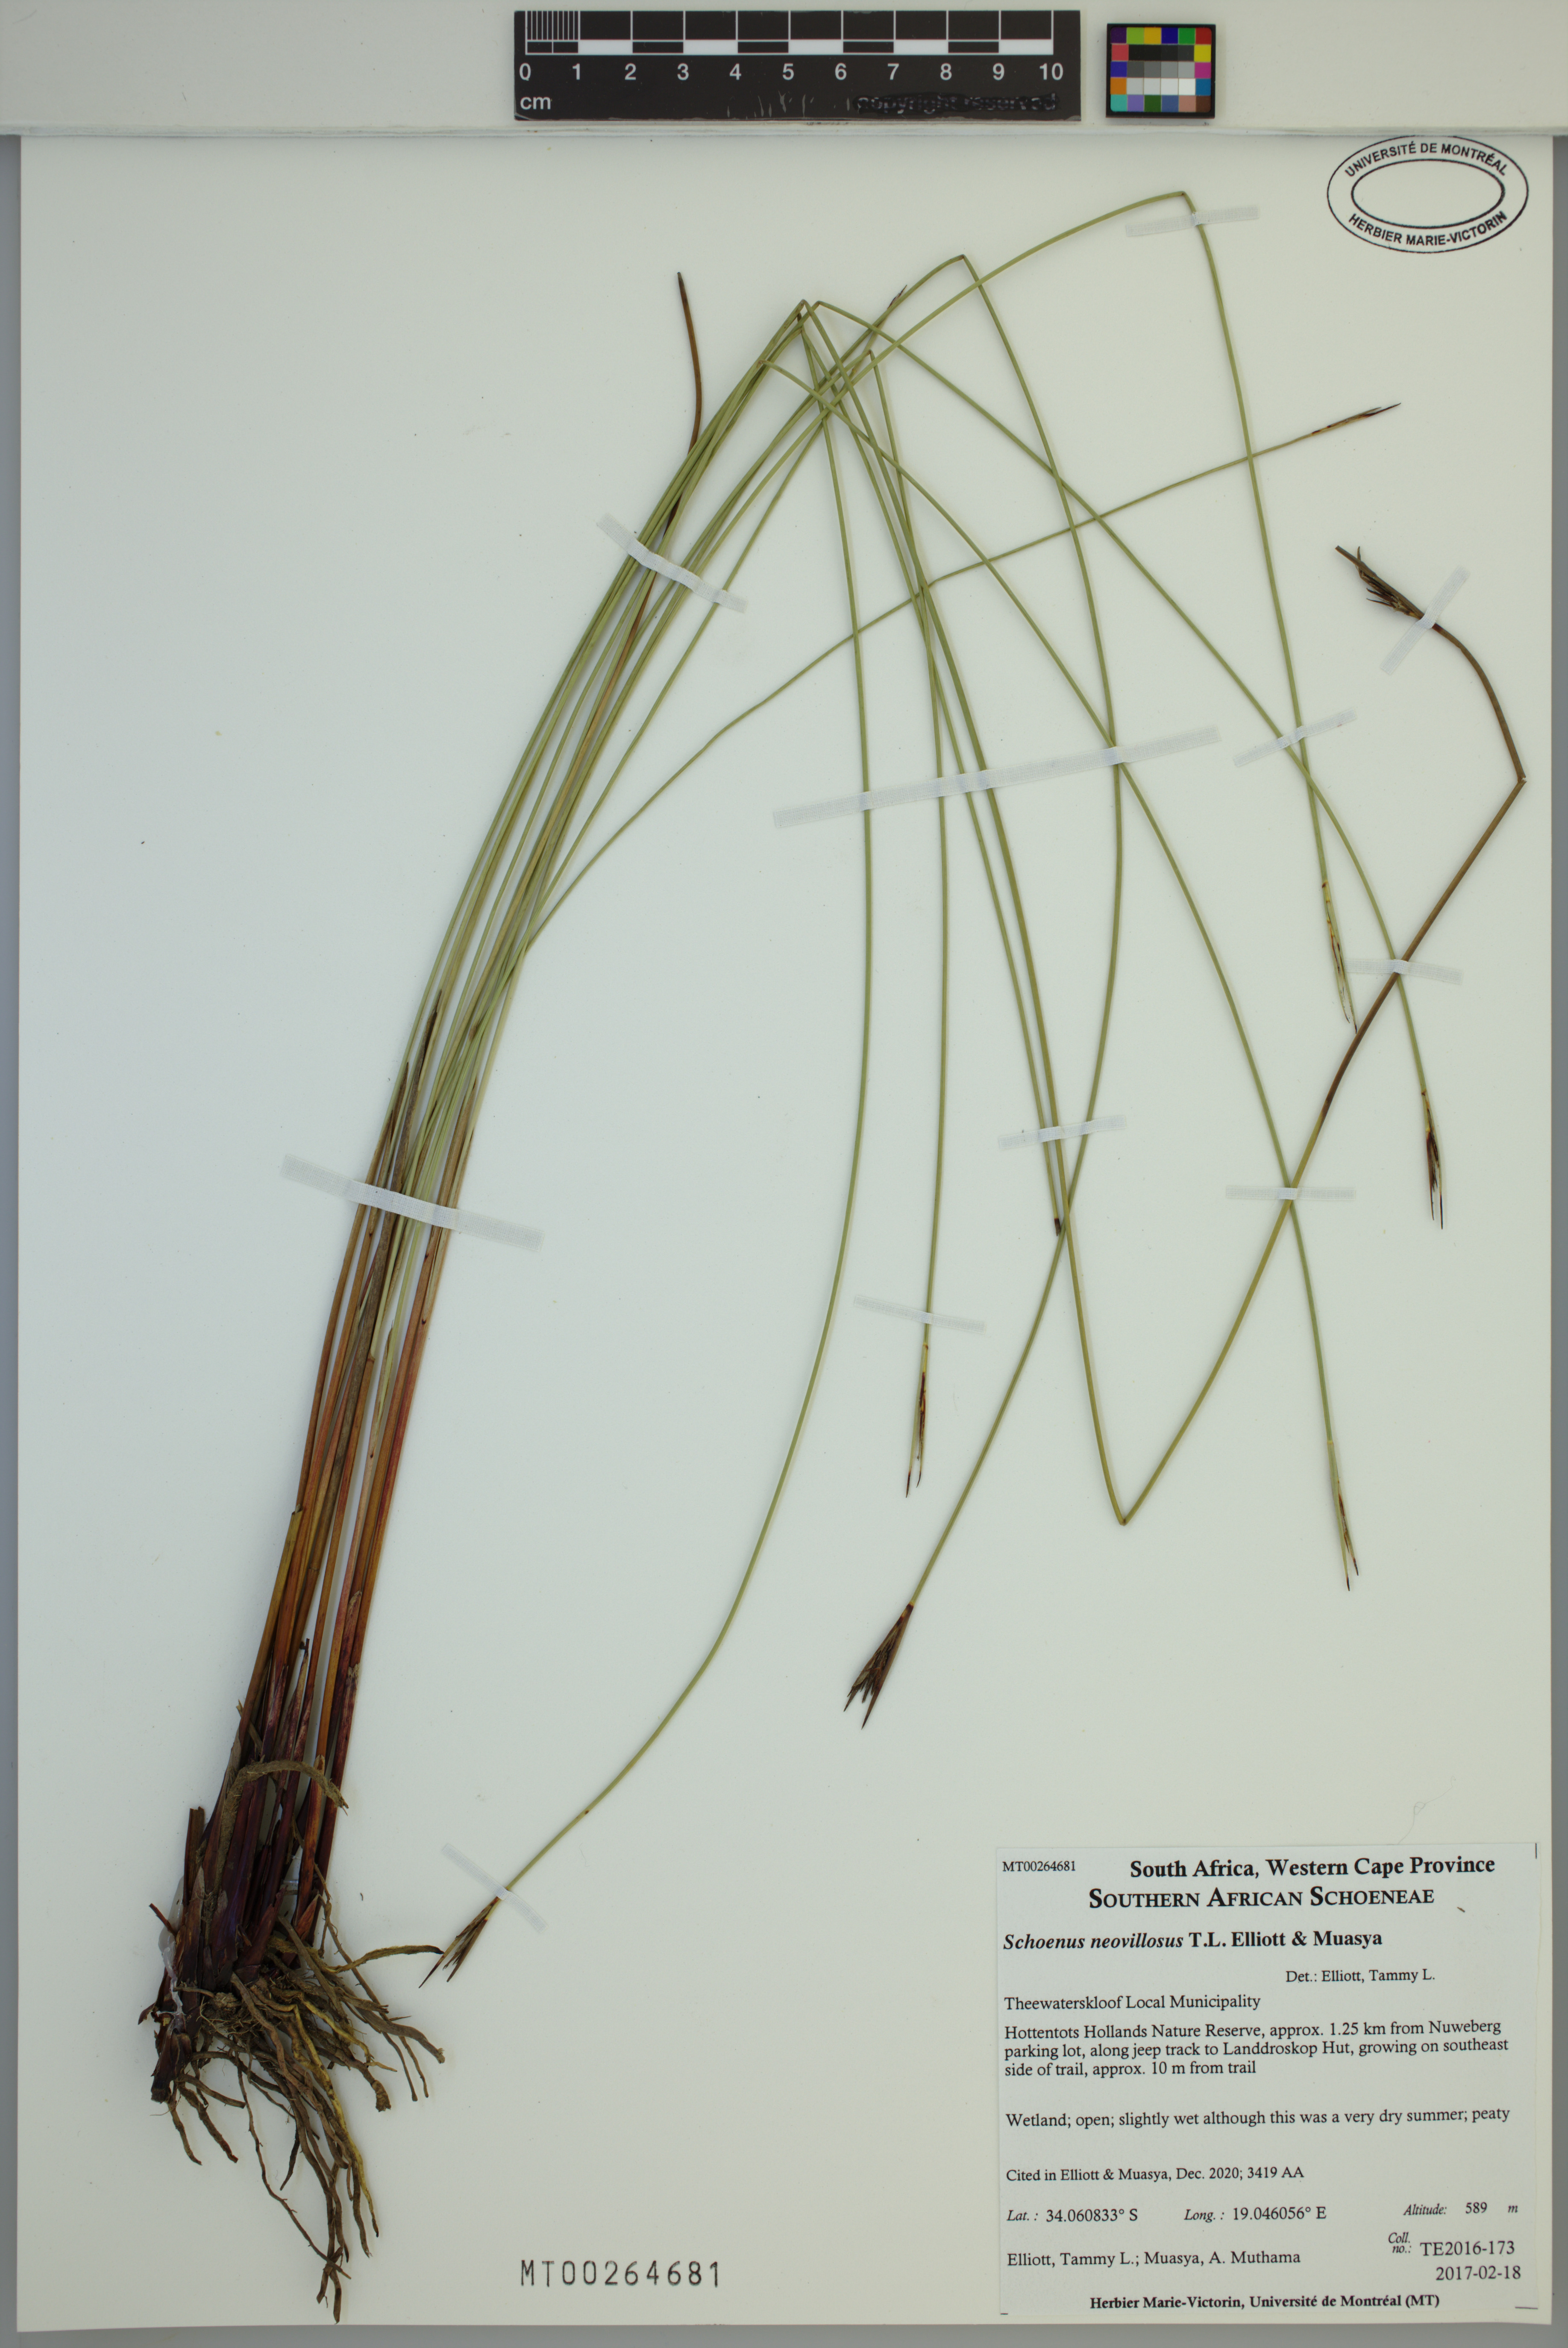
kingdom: Plantae
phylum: Tracheophyta
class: Liliopsida
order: Poales
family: Cyperaceae
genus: Schoenus
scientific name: Schoenus neovillosus
